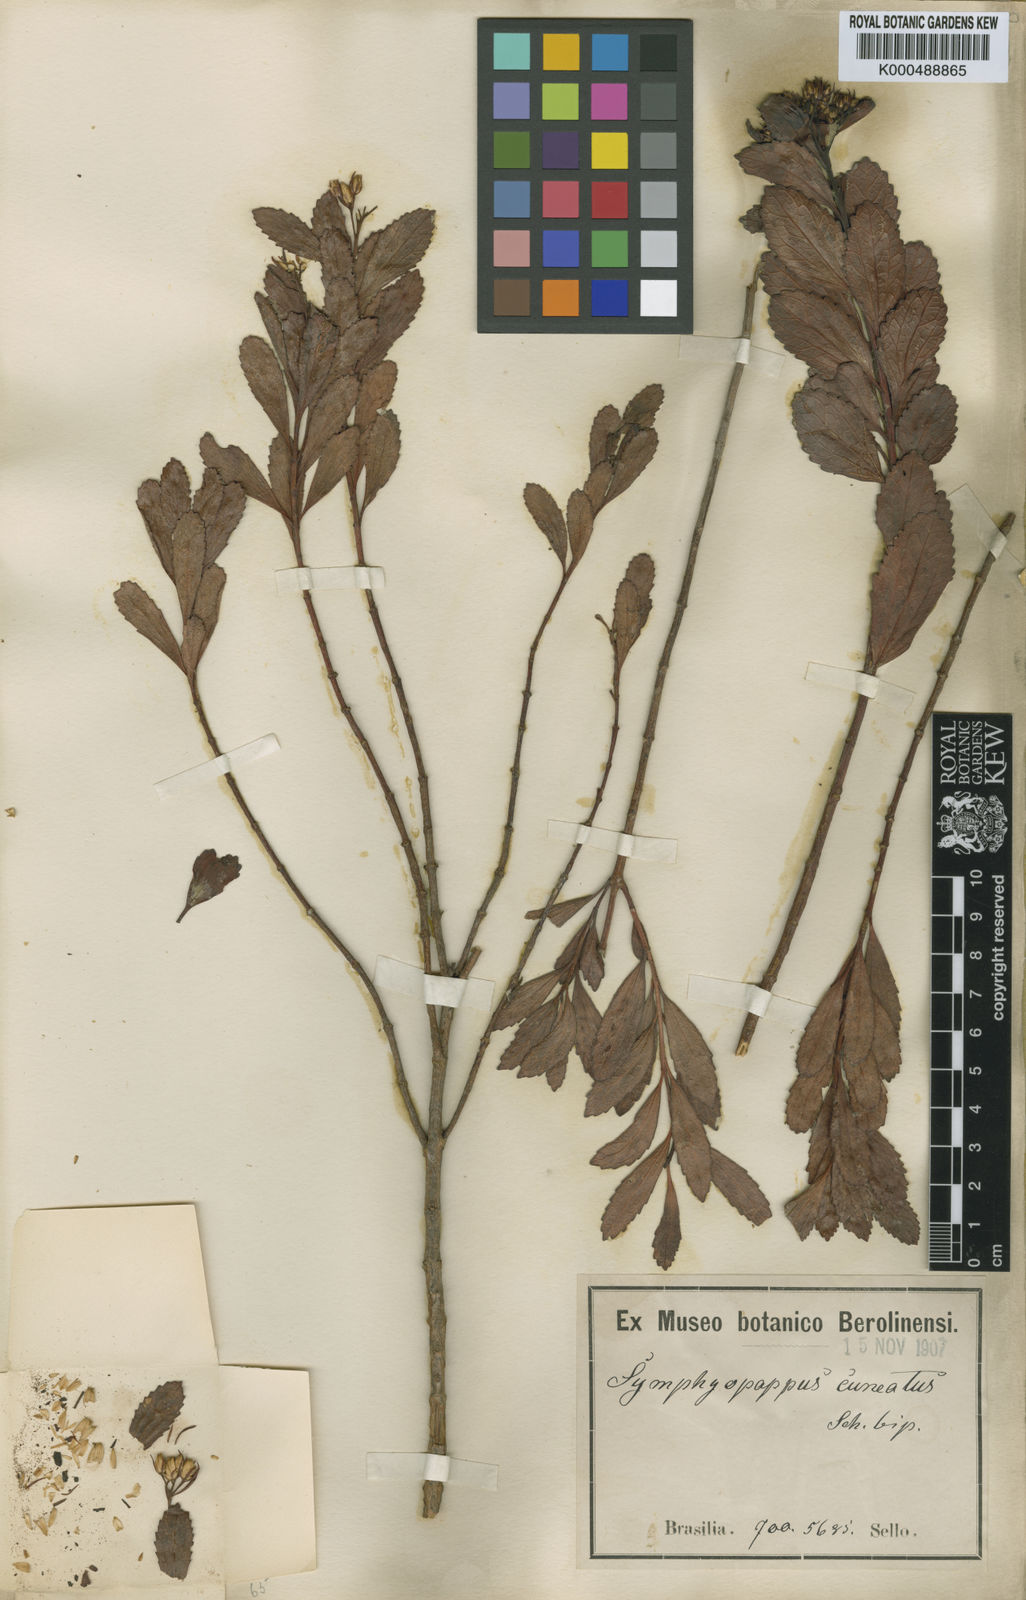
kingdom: Plantae
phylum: Tracheophyta
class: Magnoliopsida
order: Asterales
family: Asteraceae
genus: Symphyopappus
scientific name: Symphyopappus cuneatus
